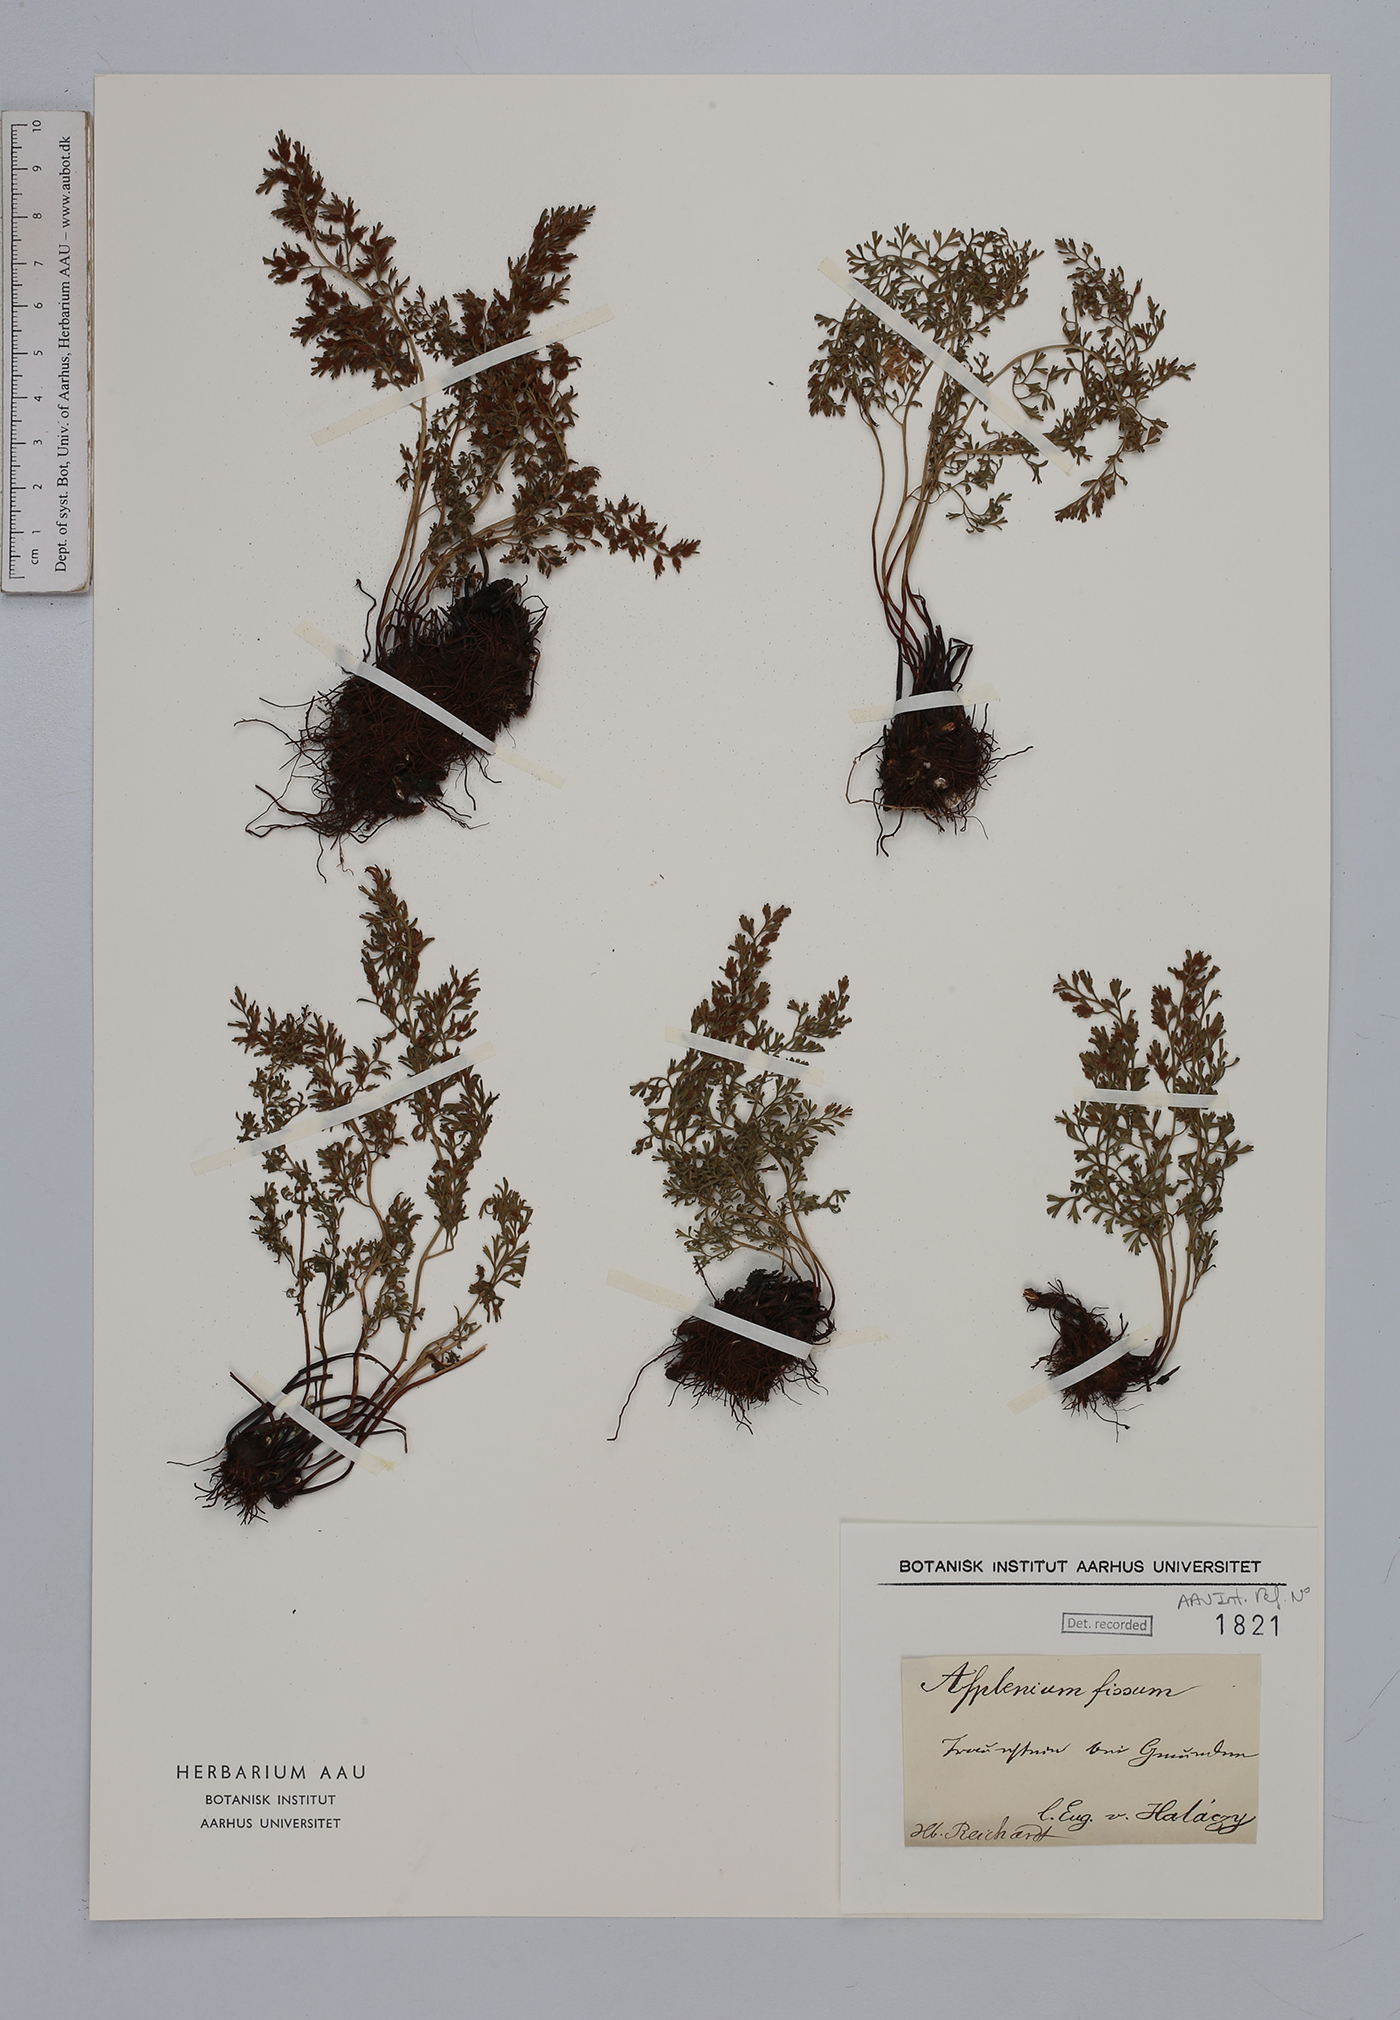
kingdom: Plantae
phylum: Tracheophyta
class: Polypodiopsida
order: Polypodiales
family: Aspleniaceae
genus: Asplenium
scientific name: Asplenium fissum
